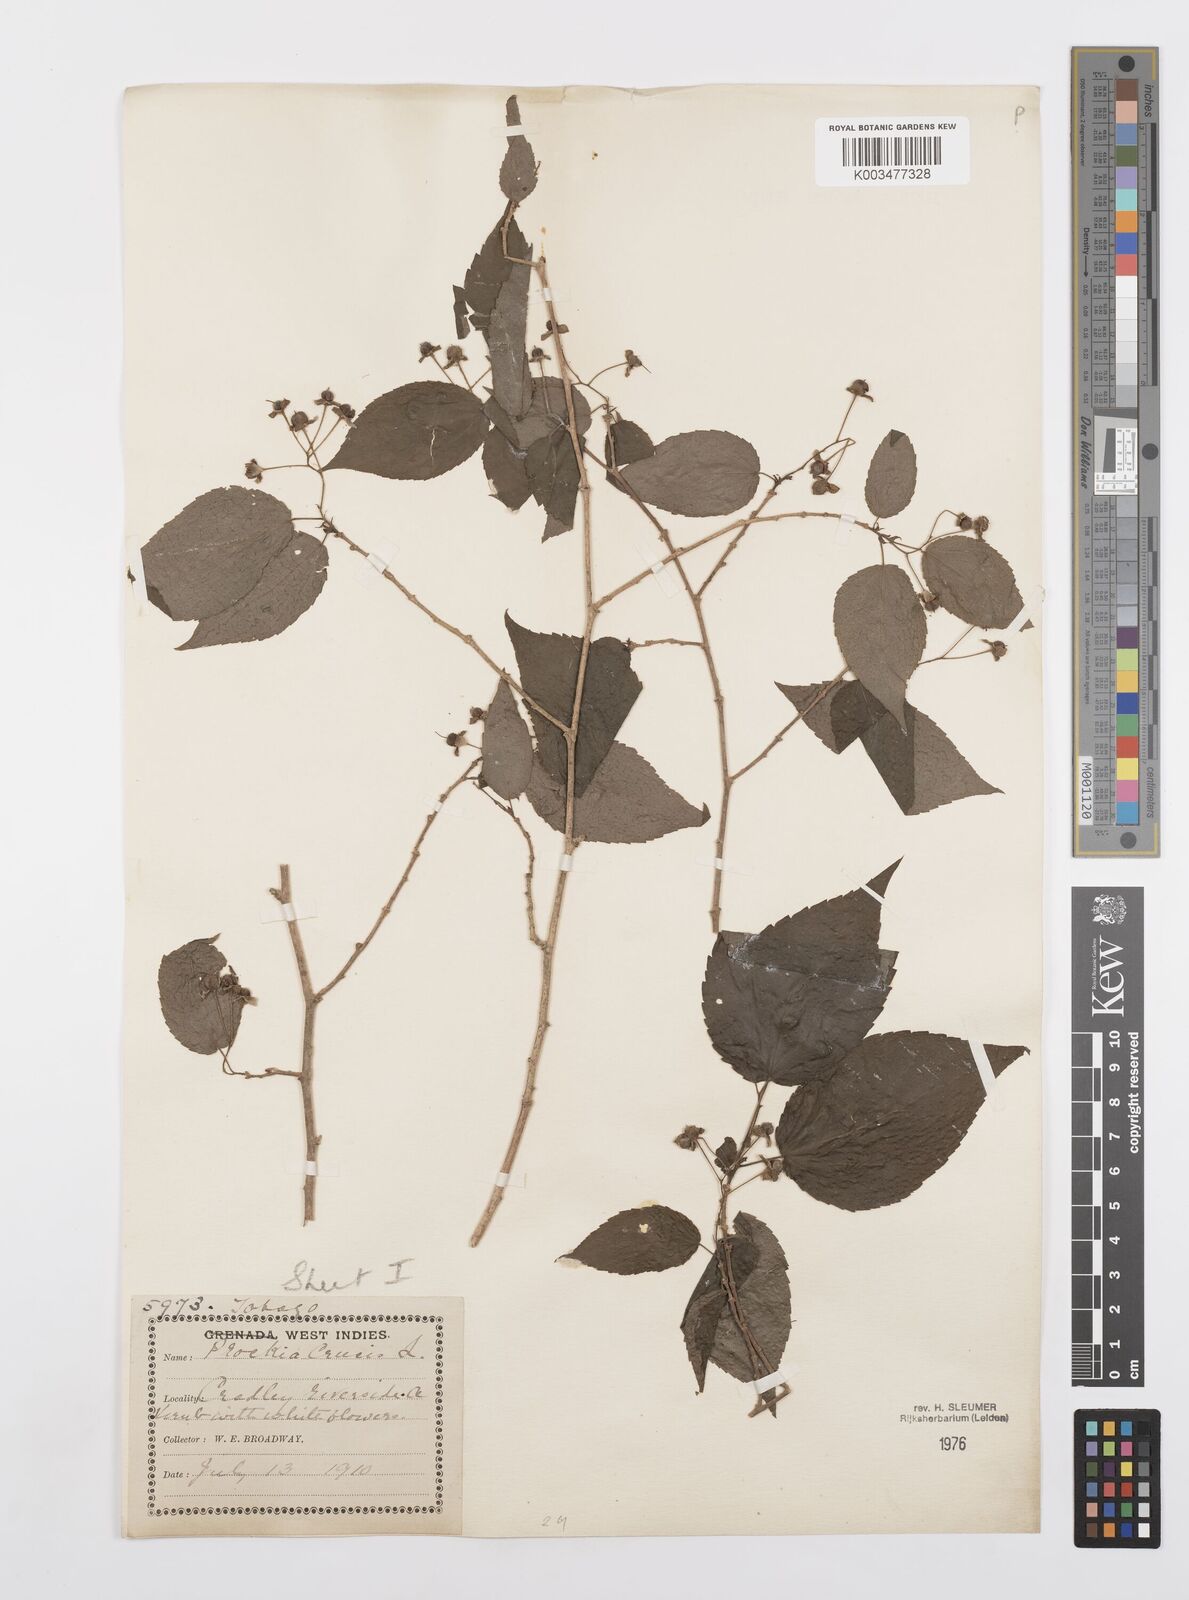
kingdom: Plantae
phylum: Tracheophyta
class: Magnoliopsida
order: Malpighiales
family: Salicaceae
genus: Prockia
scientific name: Prockia crucis
